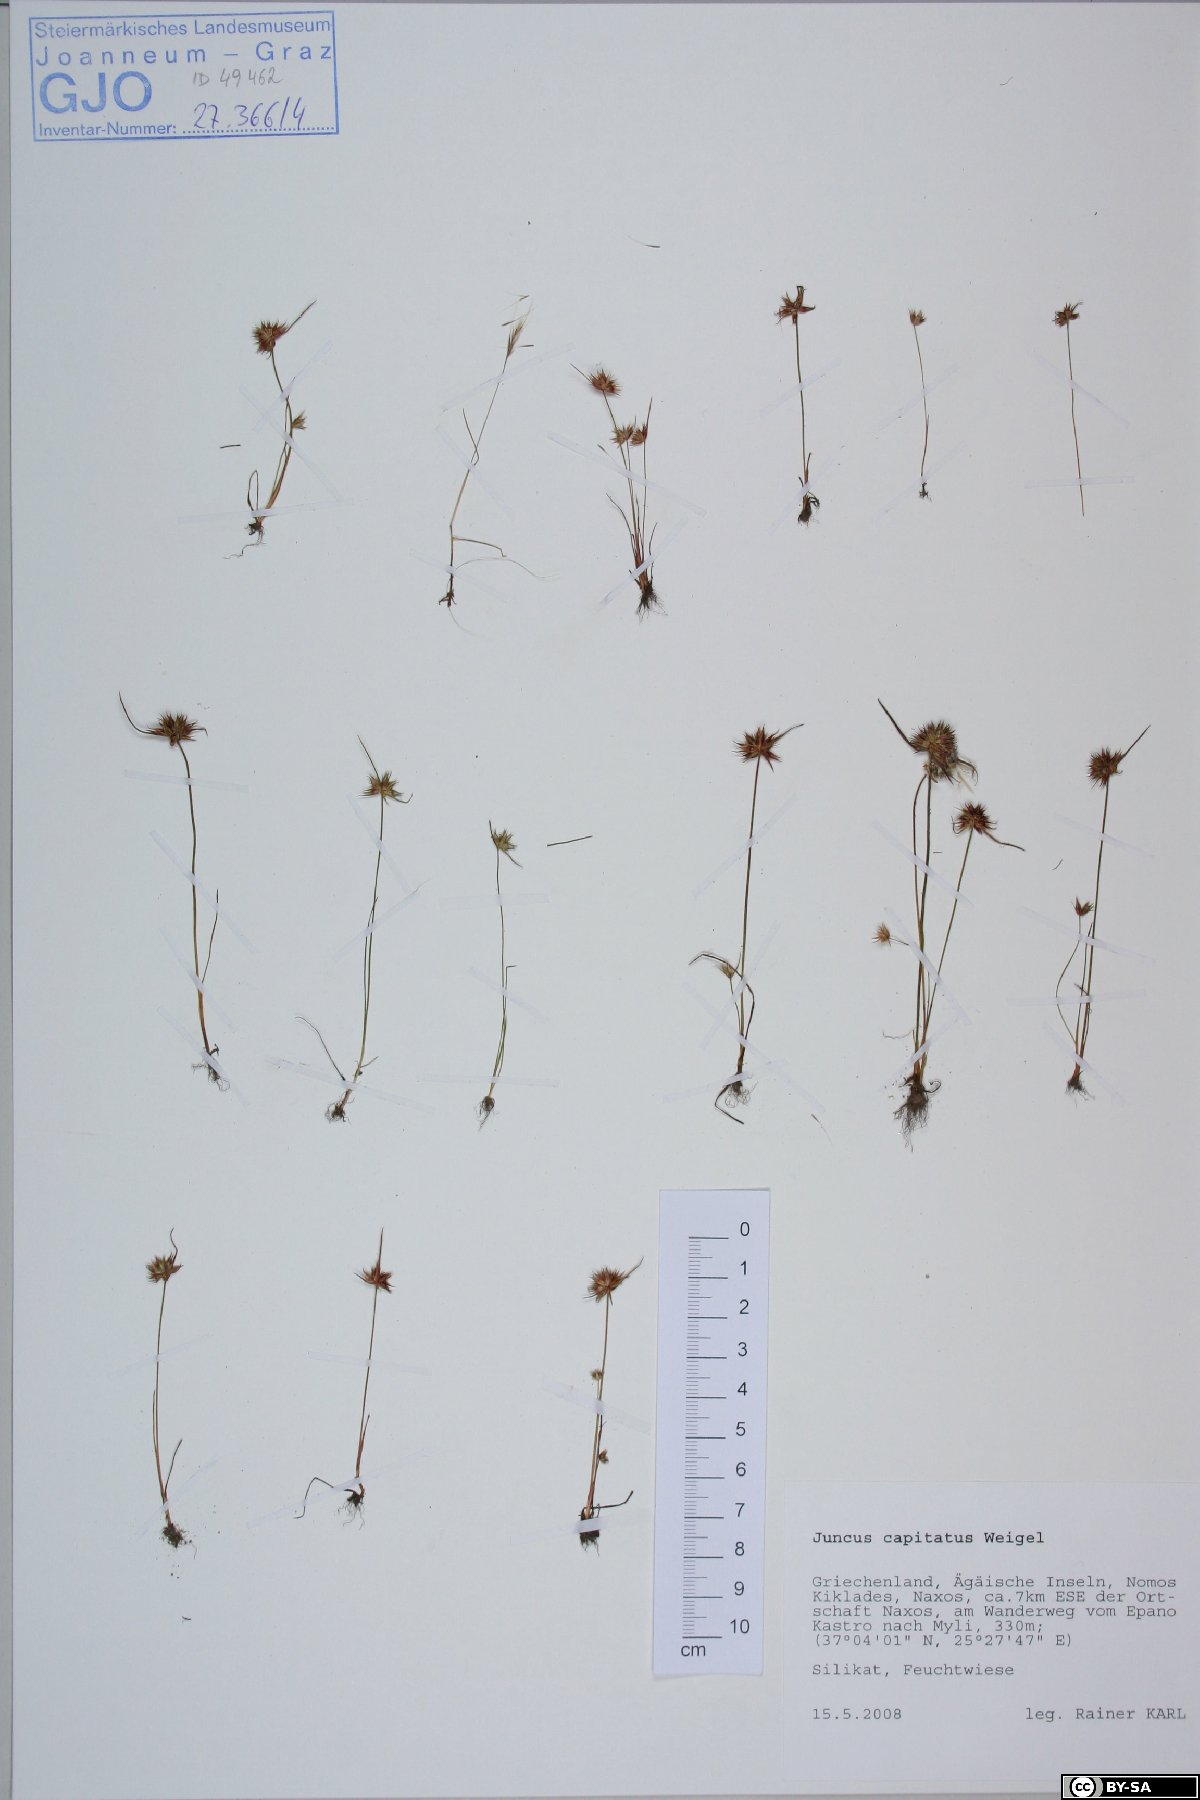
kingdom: Plantae
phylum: Tracheophyta
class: Liliopsida
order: Poales
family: Juncaceae
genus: Juncus
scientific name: Juncus capitatus
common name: Dwarf rush
